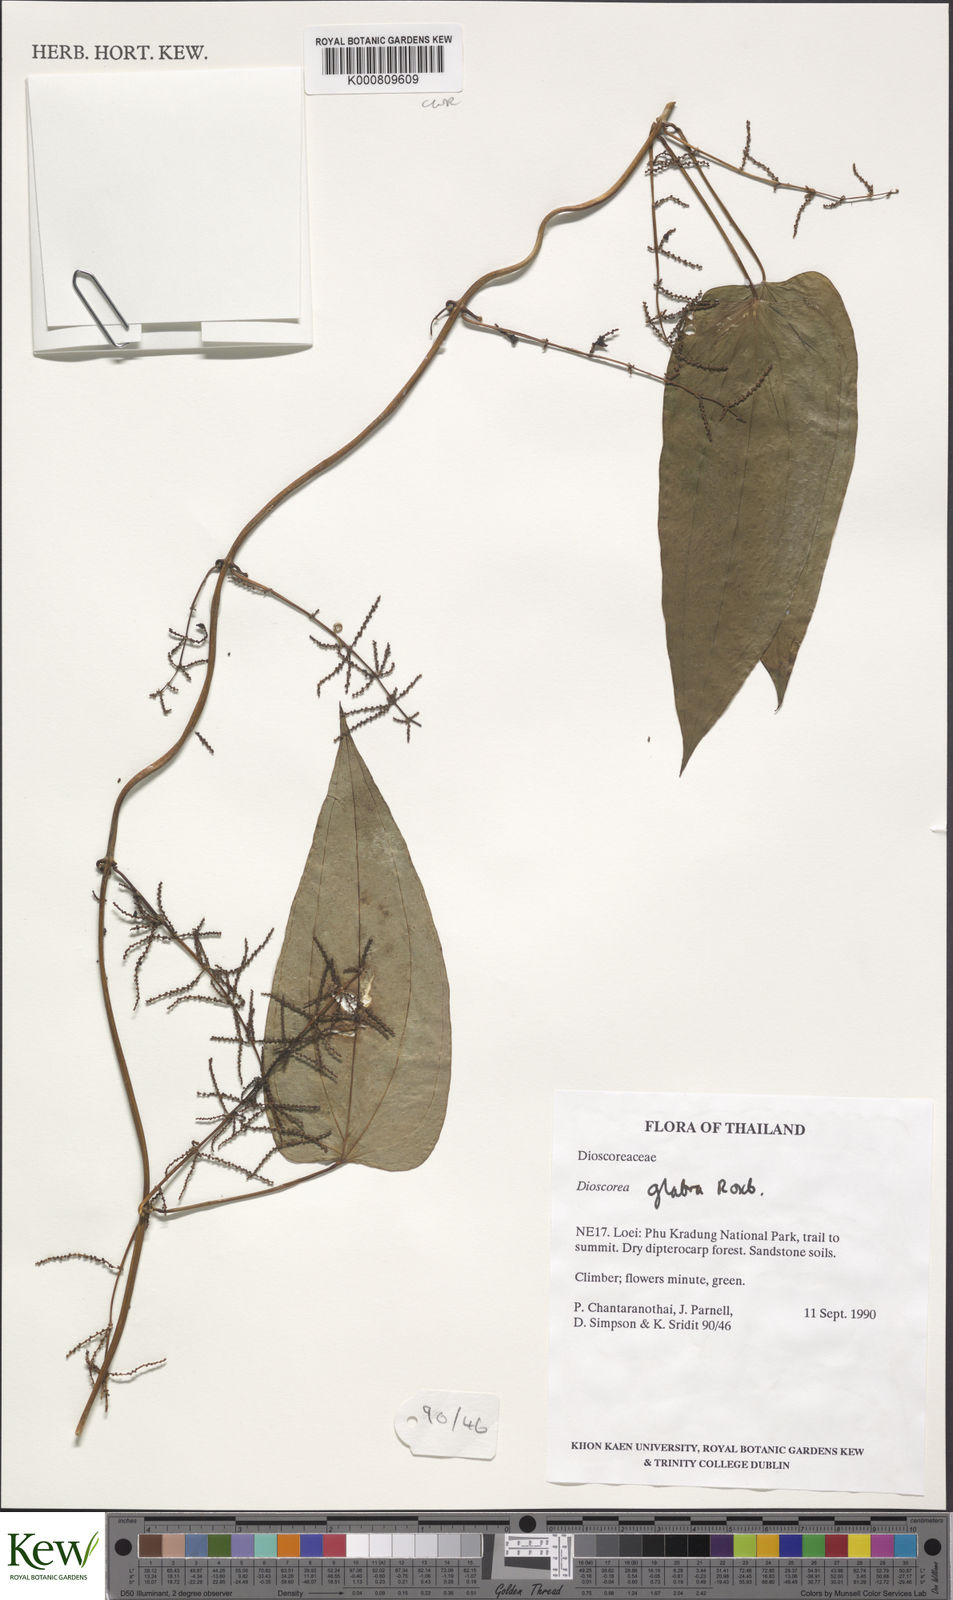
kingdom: Plantae
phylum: Tracheophyta
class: Liliopsida
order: Dioscoreales
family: Dioscoreaceae
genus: Dioscorea
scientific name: Dioscorea glabra
